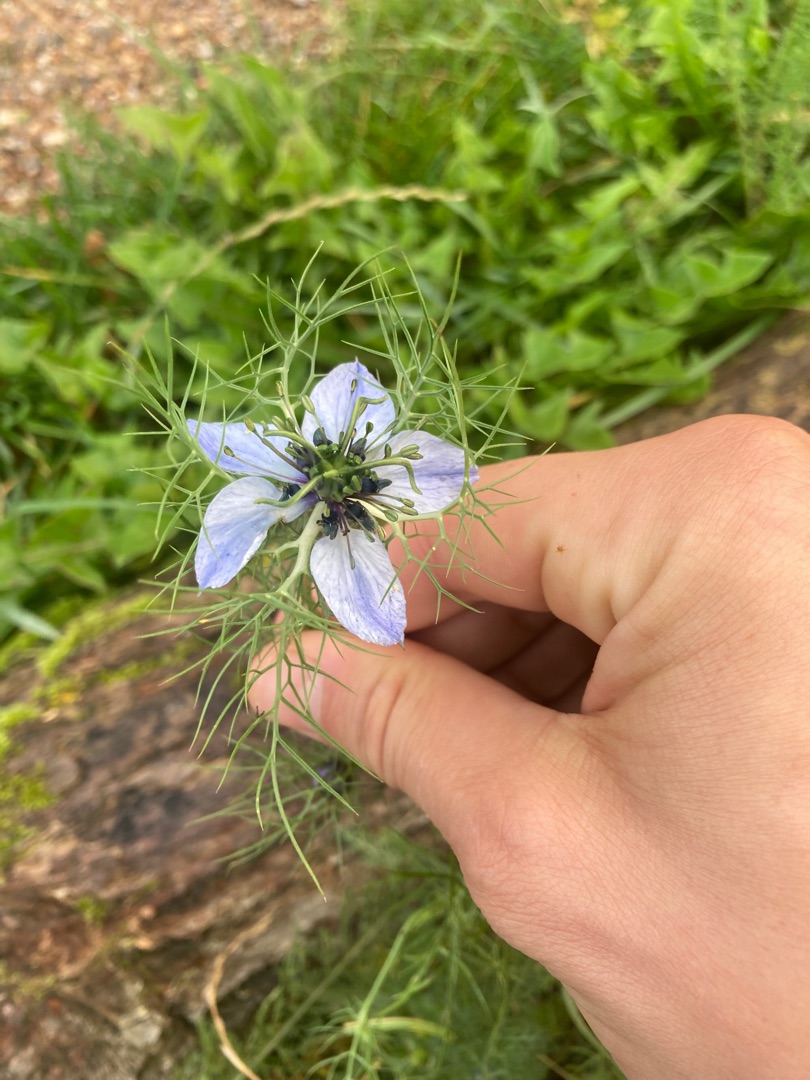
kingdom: Plantae
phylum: Tracheophyta
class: Magnoliopsida
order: Ranunculales
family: Ranunculaceae
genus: Nigella
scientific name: Nigella damascena
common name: Jomfru i det grønne
